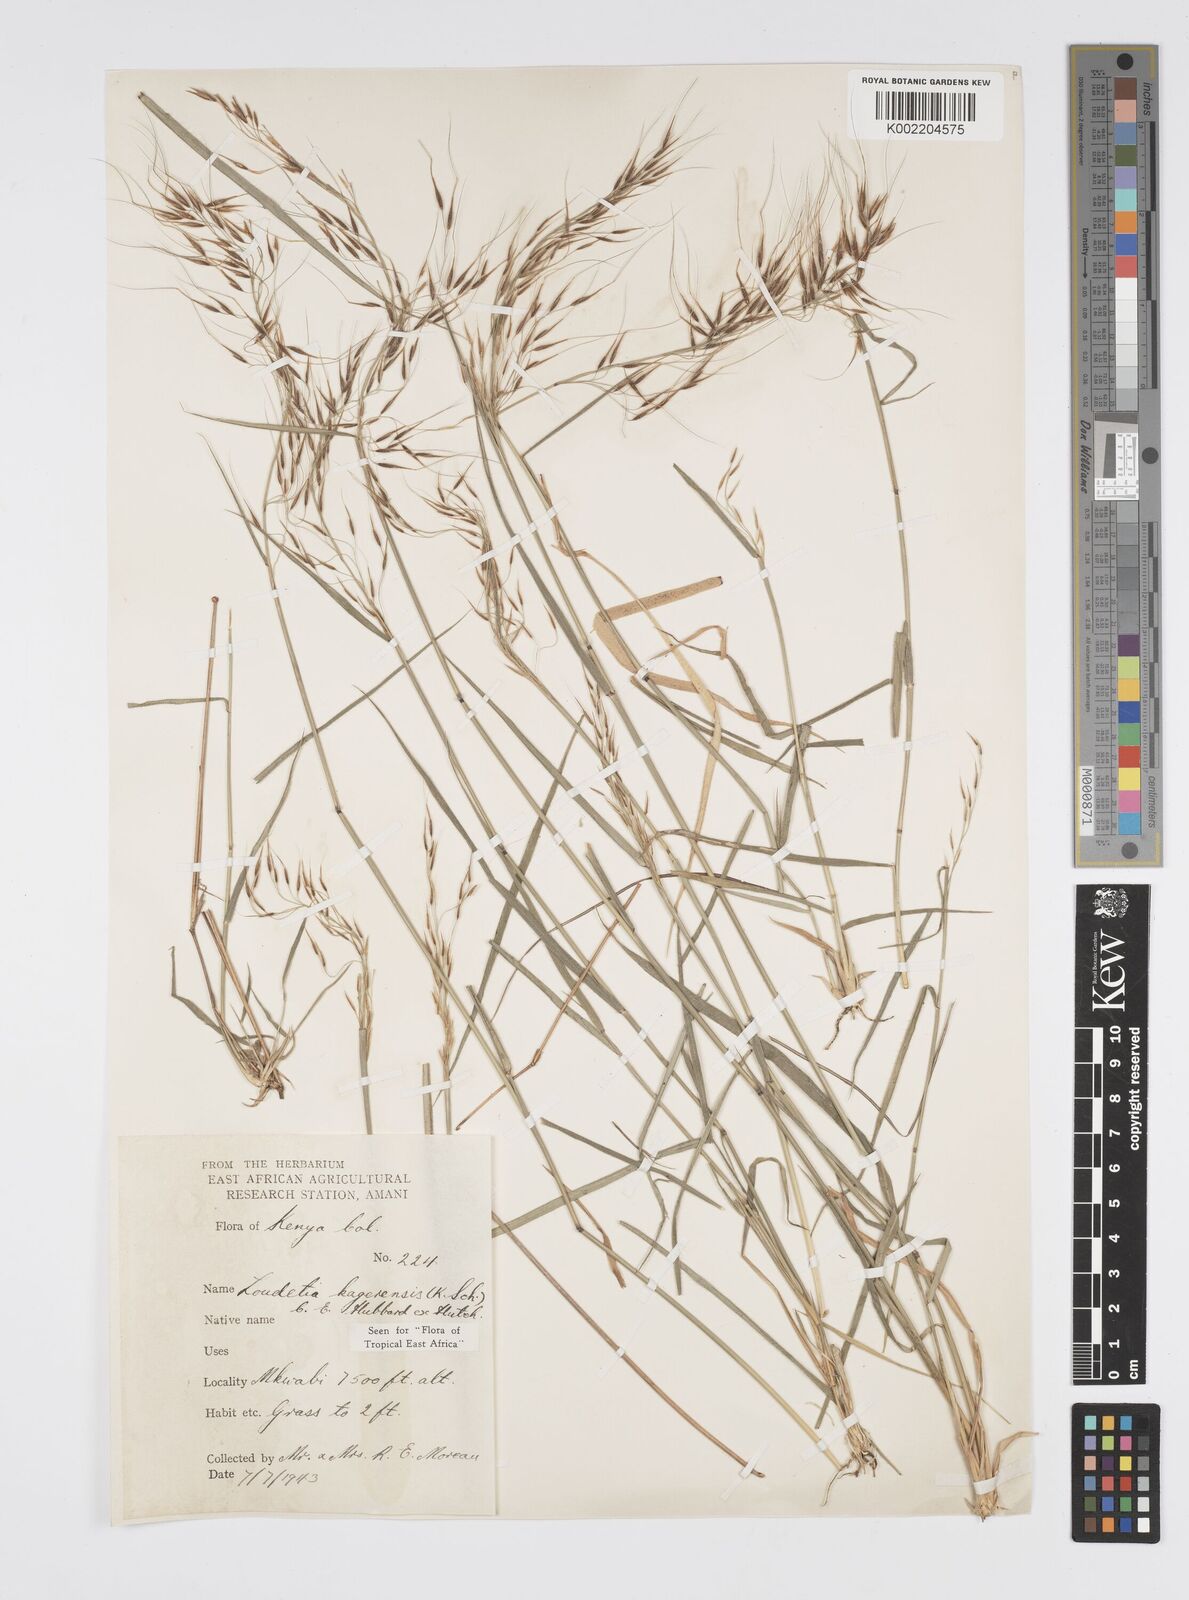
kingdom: Plantae
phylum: Tracheophyta
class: Liliopsida
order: Poales
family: Poaceae
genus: Loudetia
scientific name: Loudetia kagerensis
